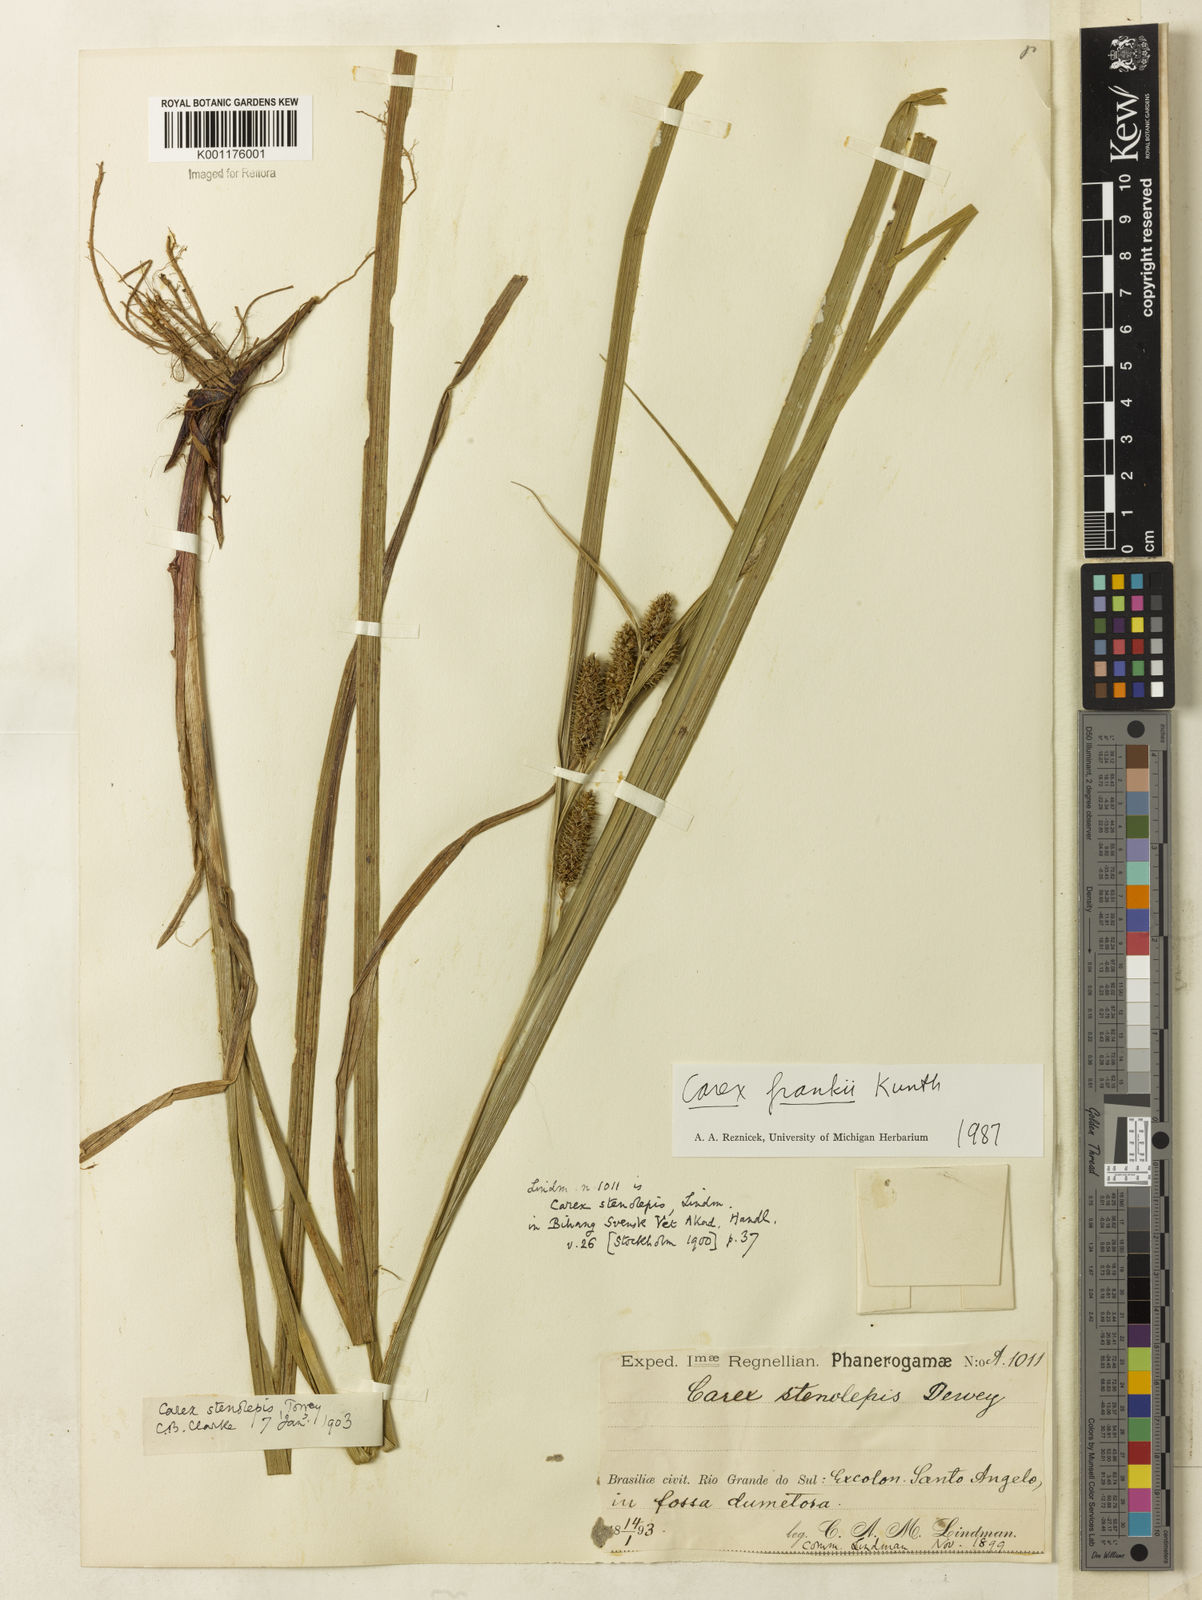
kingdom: Plantae
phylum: Tracheophyta
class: Liliopsida
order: Poales
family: Cyperaceae
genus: Carex
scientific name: Carex aureolensis
